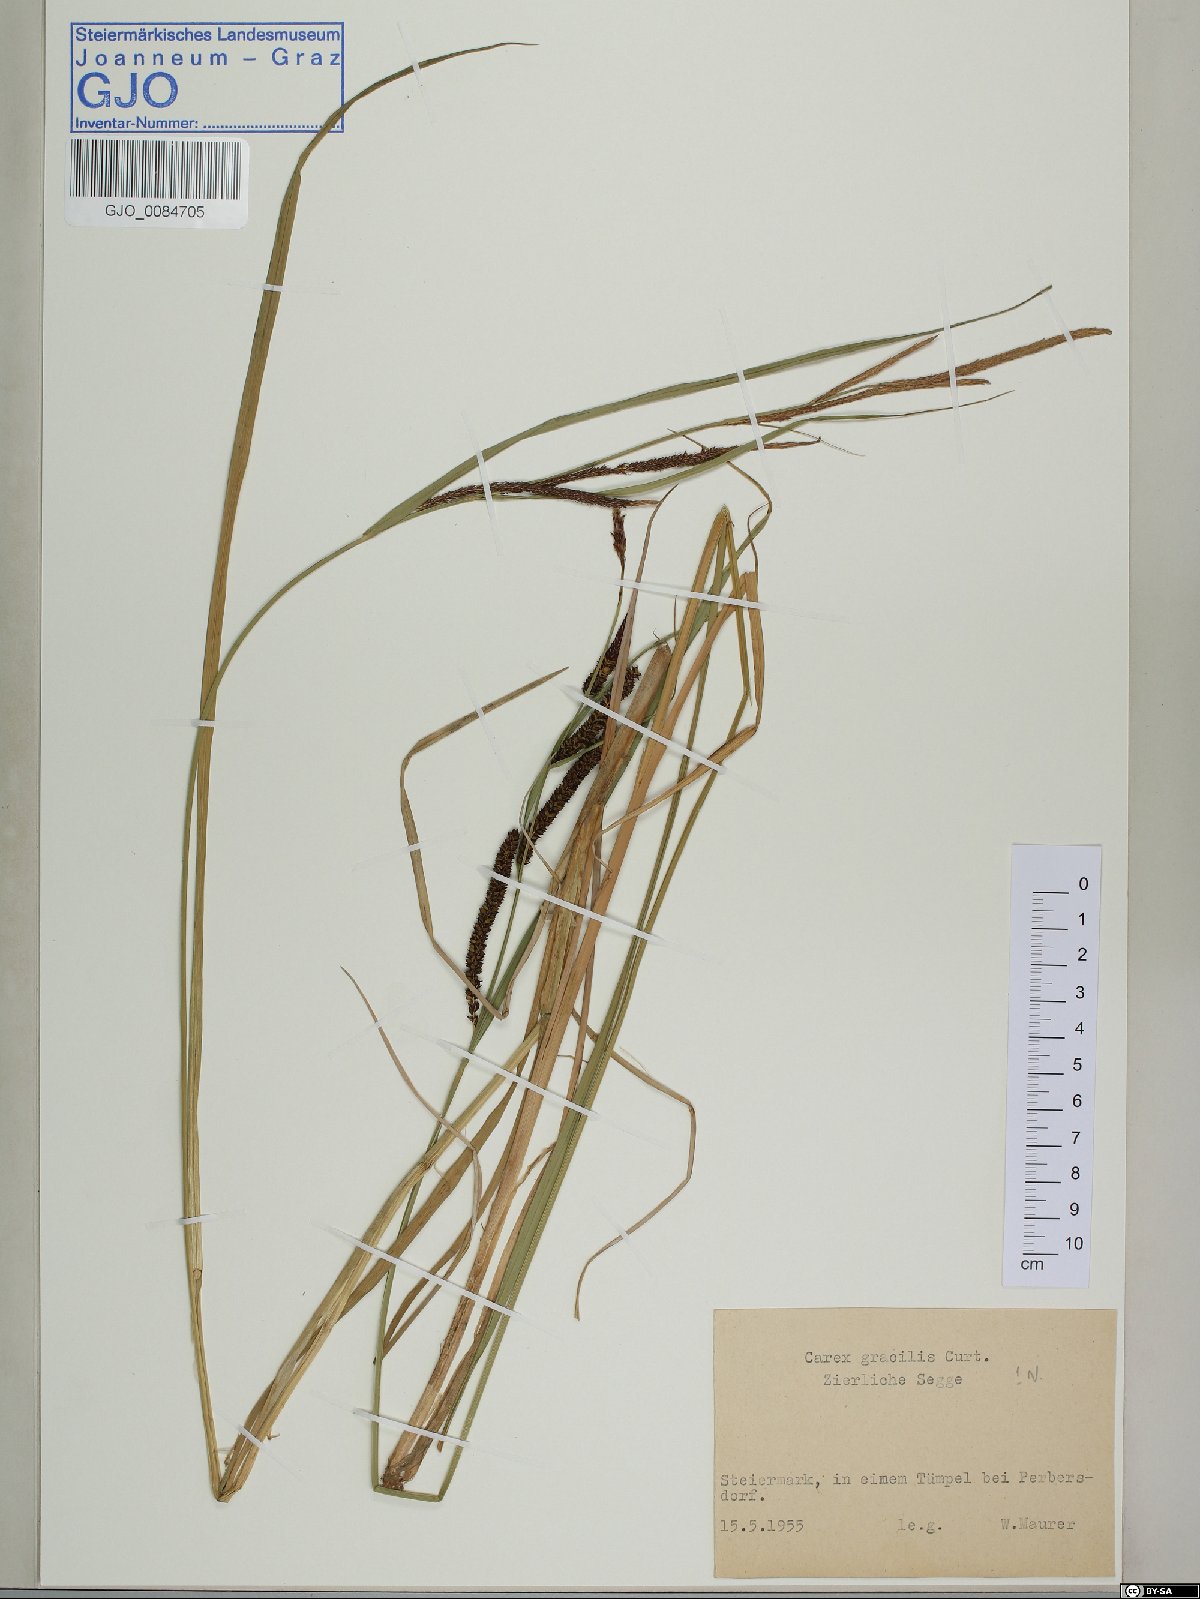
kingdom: Plantae
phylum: Tracheophyta
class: Liliopsida
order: Poales
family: Cyperaceae
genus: Carex
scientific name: Carex acuta
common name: Slender tufted-sedge
